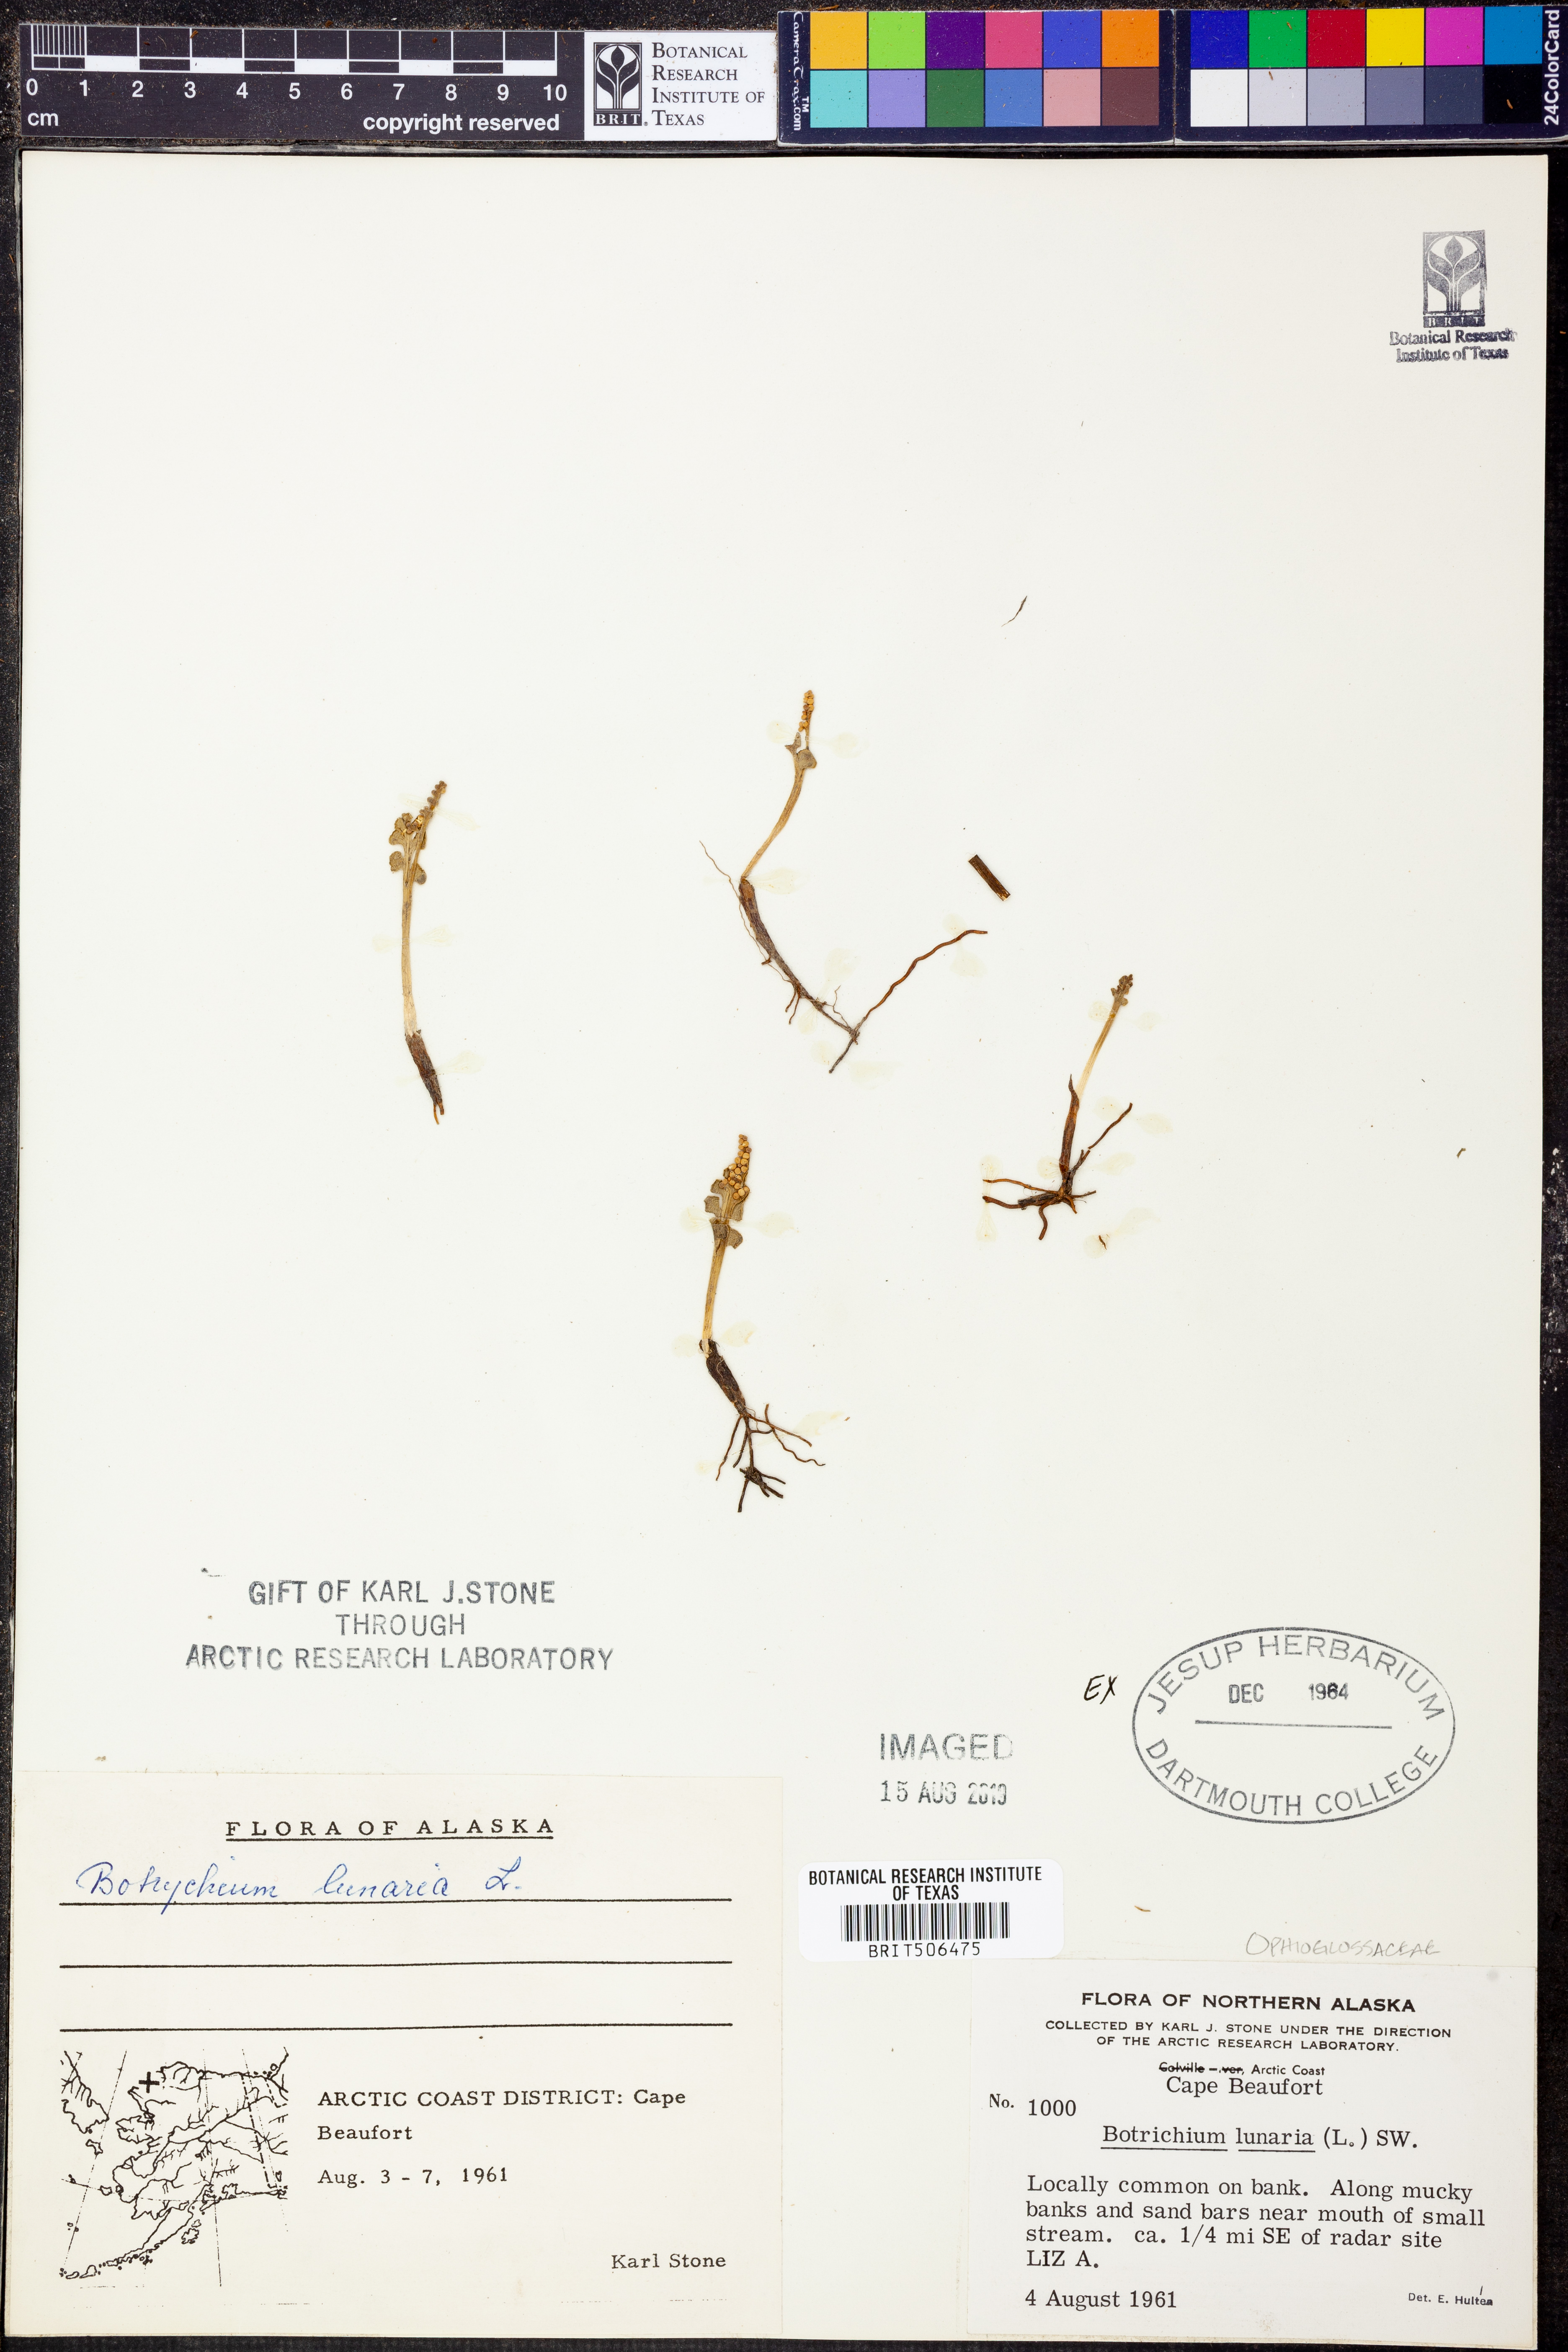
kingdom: Plantae
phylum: Tracheophyta
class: Polypodiopsida
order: Ophioglossales
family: Ophioglossaceae
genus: Botrychium
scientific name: Botrychium lunaria
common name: Moonwort
